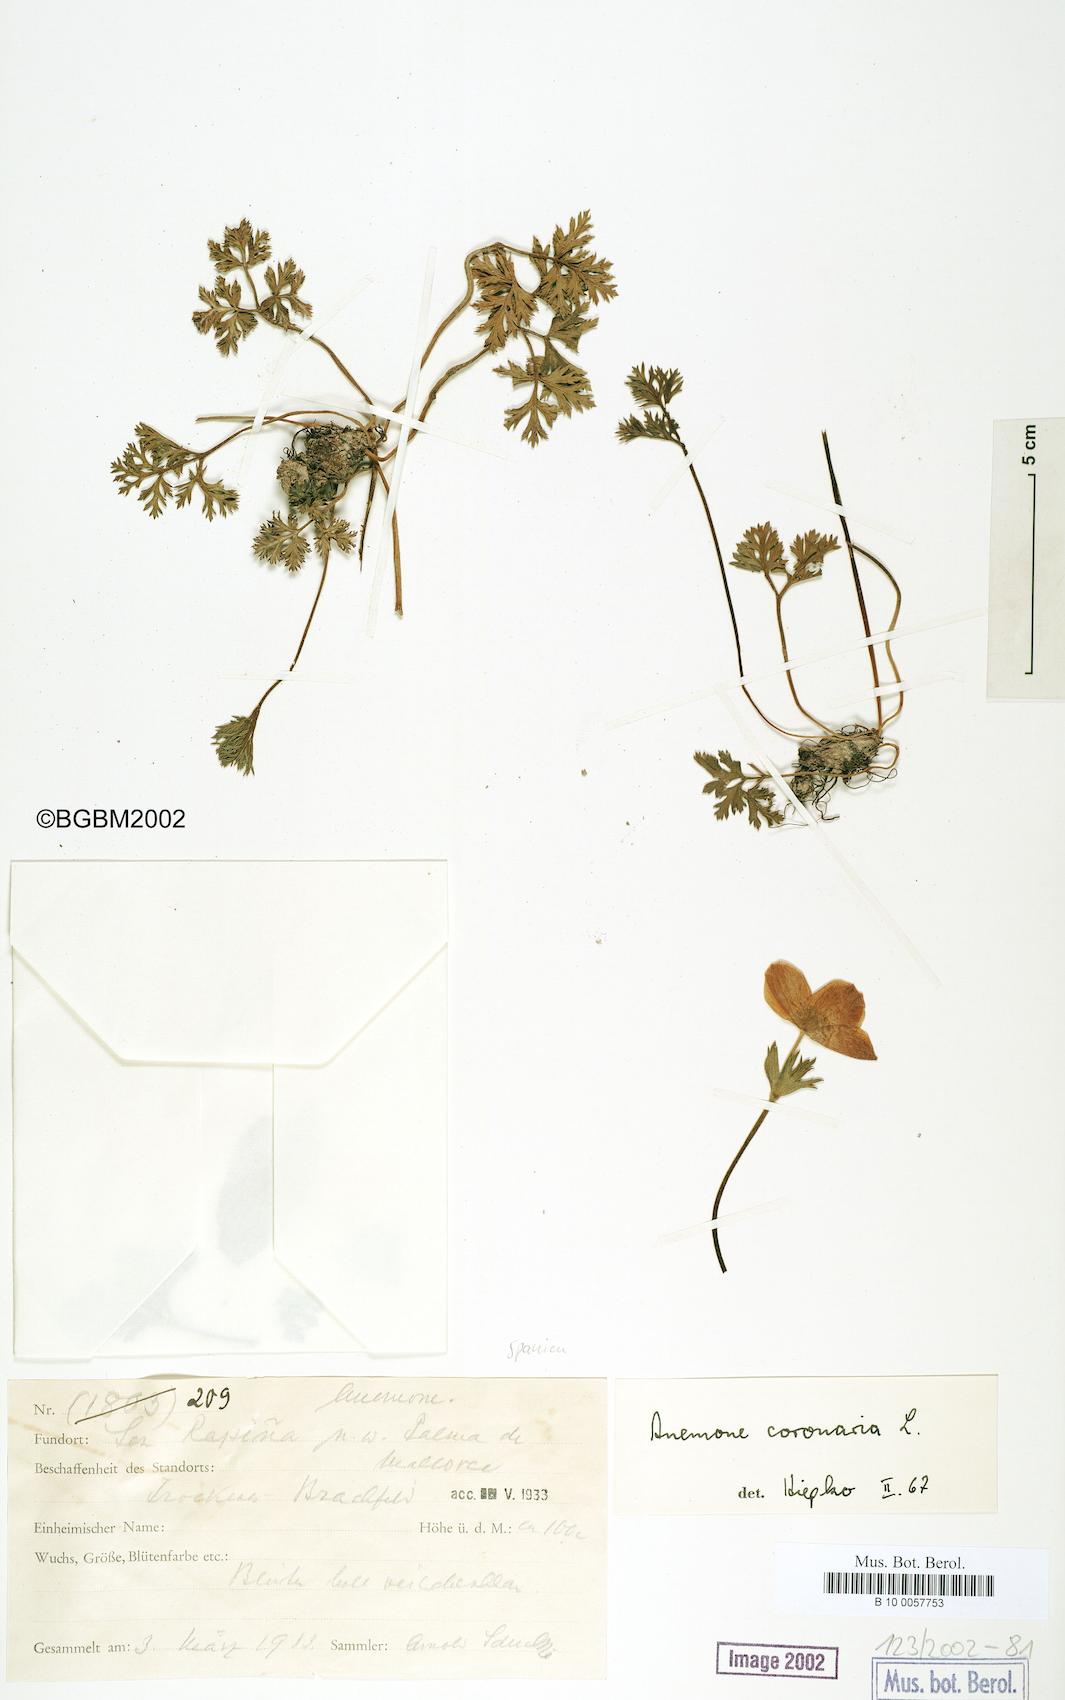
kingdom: Plantae
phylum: Tracheophyta
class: Magnoliopsida
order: Ranunculales
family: Ranunculaceae
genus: Anemone
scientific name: Anemone coronaria
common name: Poppy anemone
